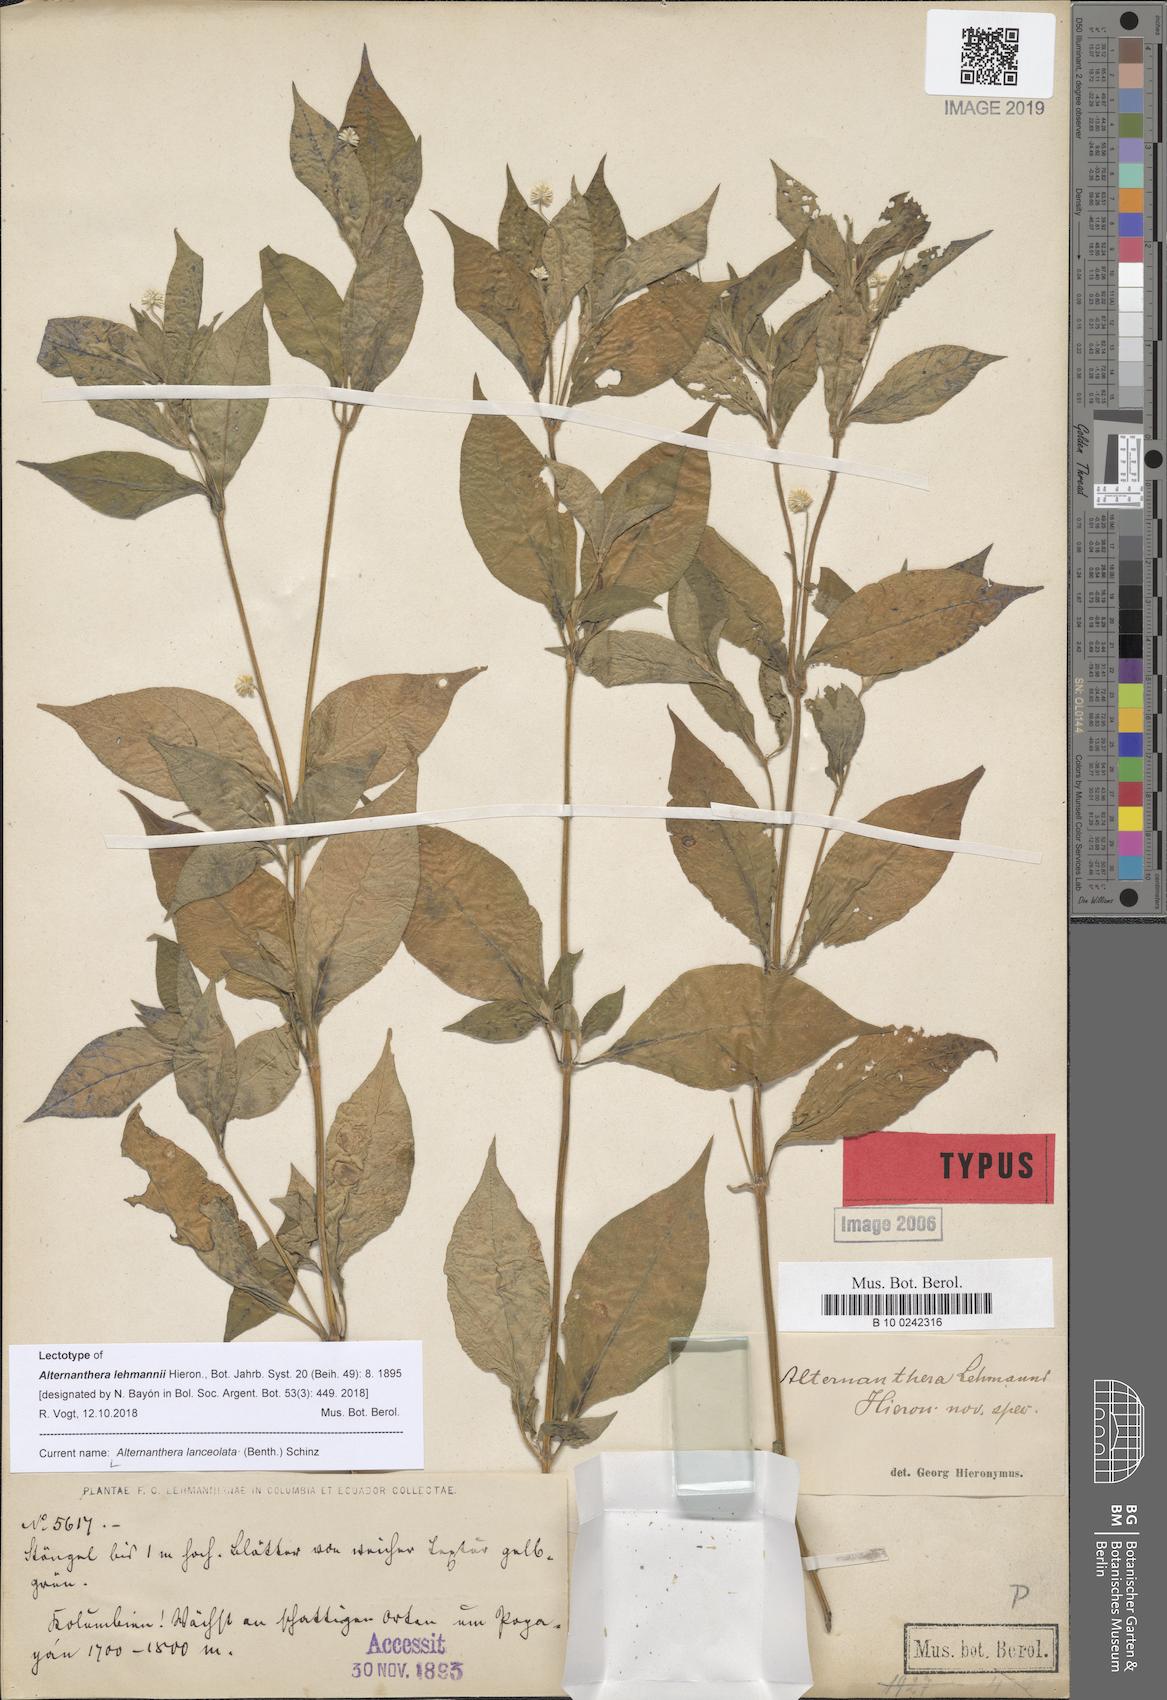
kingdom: Plantae
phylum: Tracheophyta
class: Magnoliopsida
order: Caryophyllales
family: Amaranthaceae
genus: Alternanthera
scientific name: Alternanthera lanceolata
